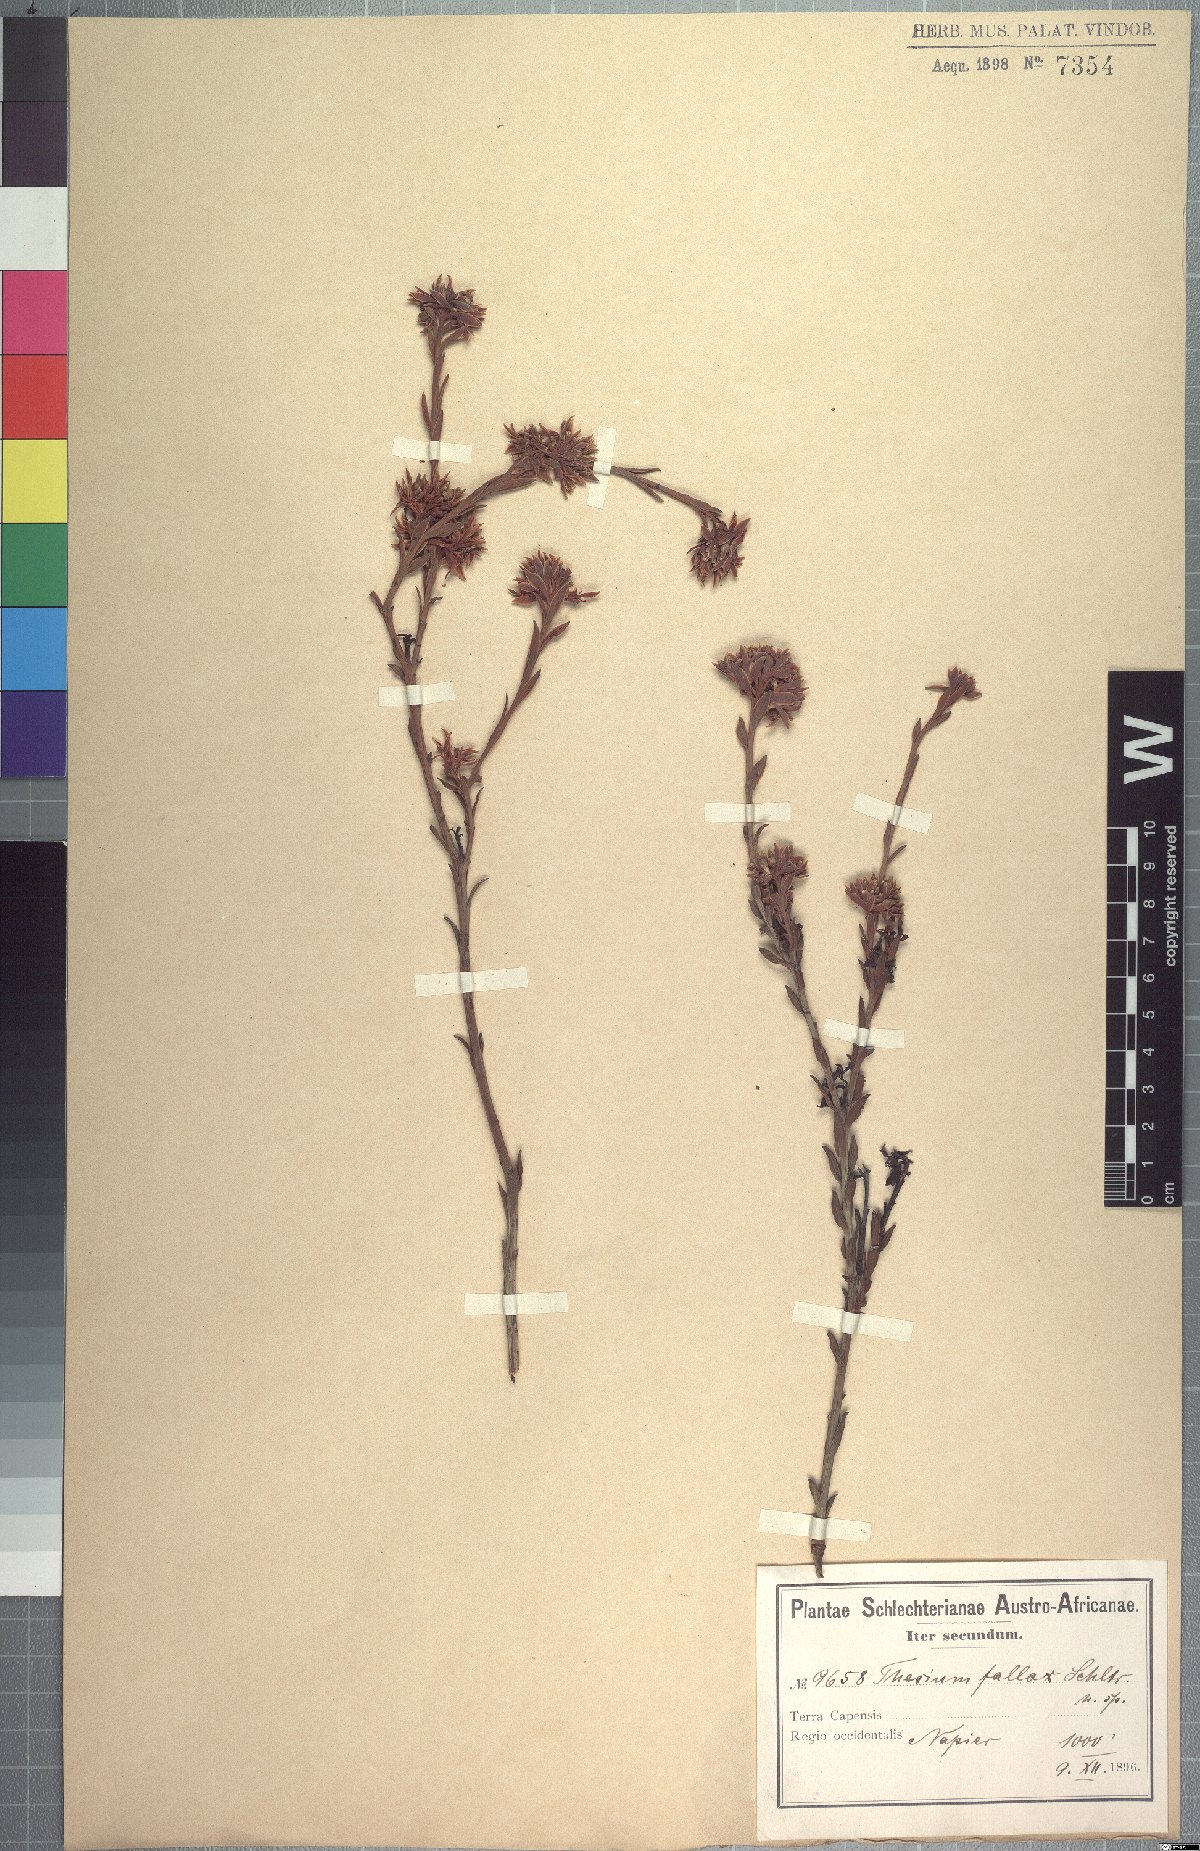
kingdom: Plantae
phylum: Tracheophyta
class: Magnoliopsida
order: Santalales
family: Thesiaceae
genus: Thesium
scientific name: Thesium fallax
